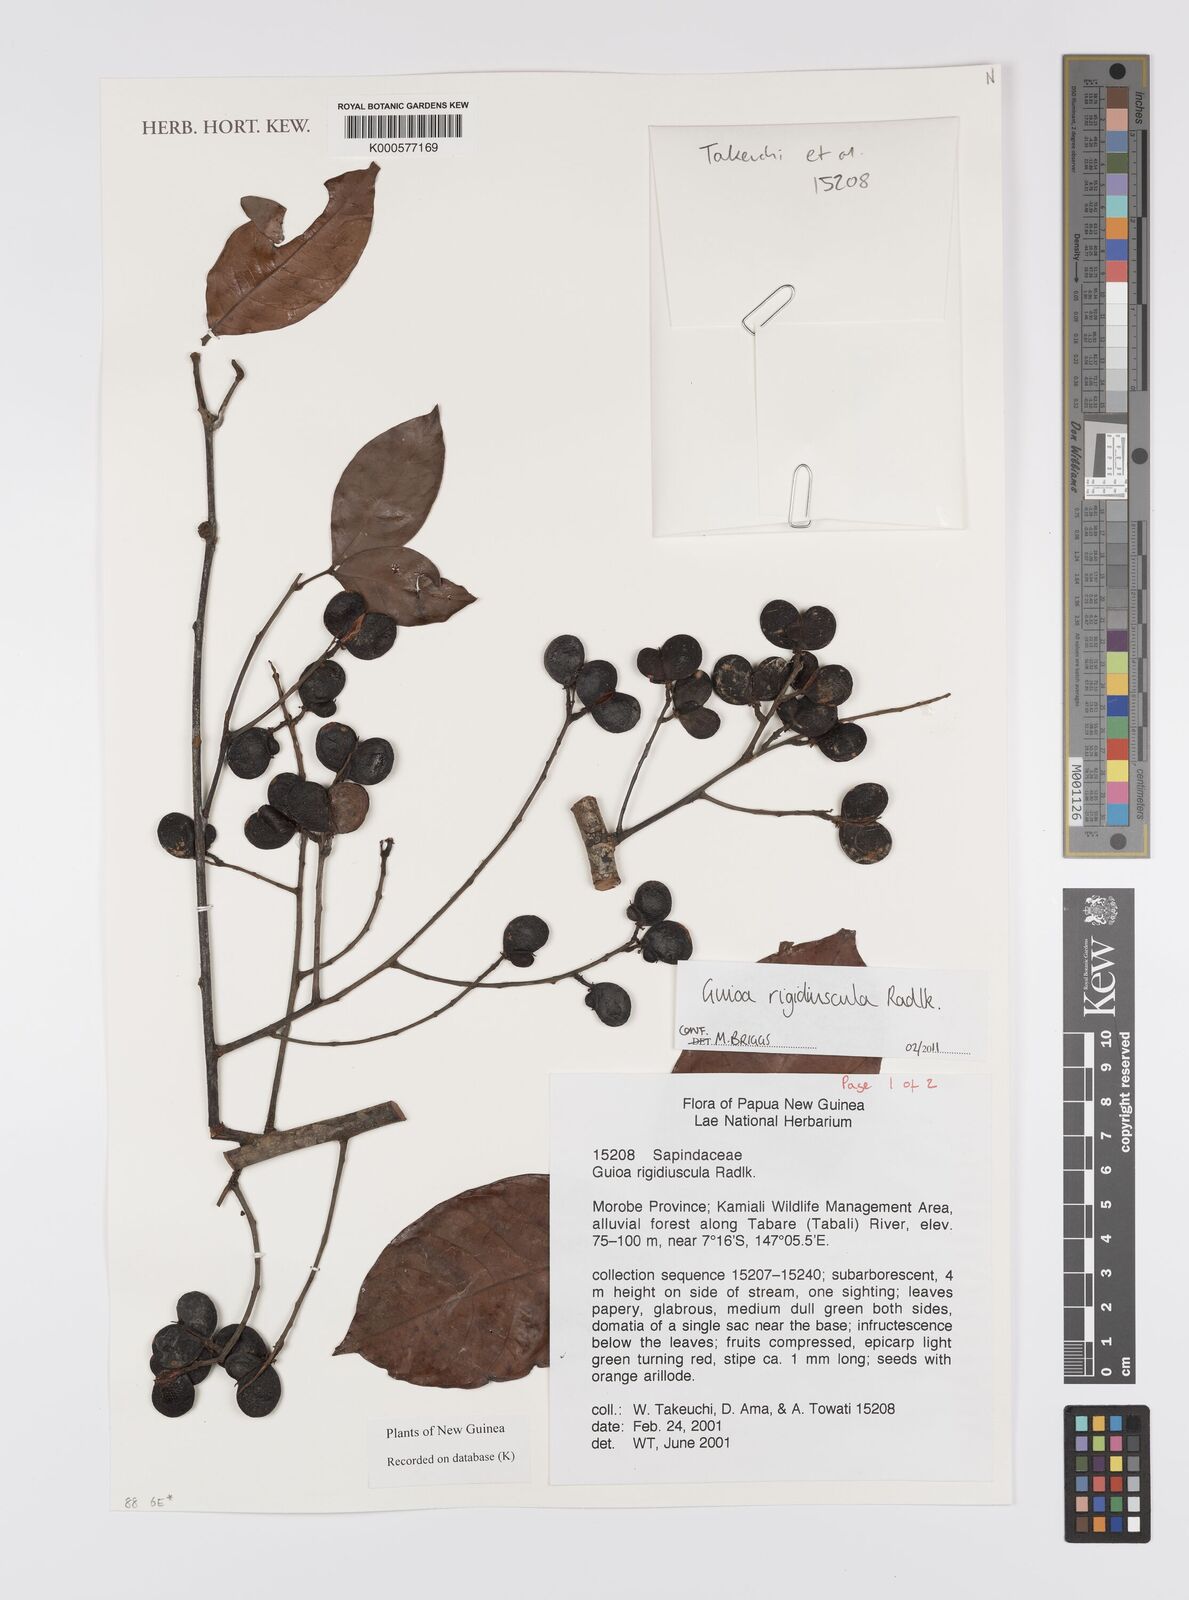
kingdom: Plantae
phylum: Tracheophyta
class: Magnoliopsida
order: Sapindales
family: Sapindaceae
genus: Guioa
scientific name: Guioa rigidiuscula
